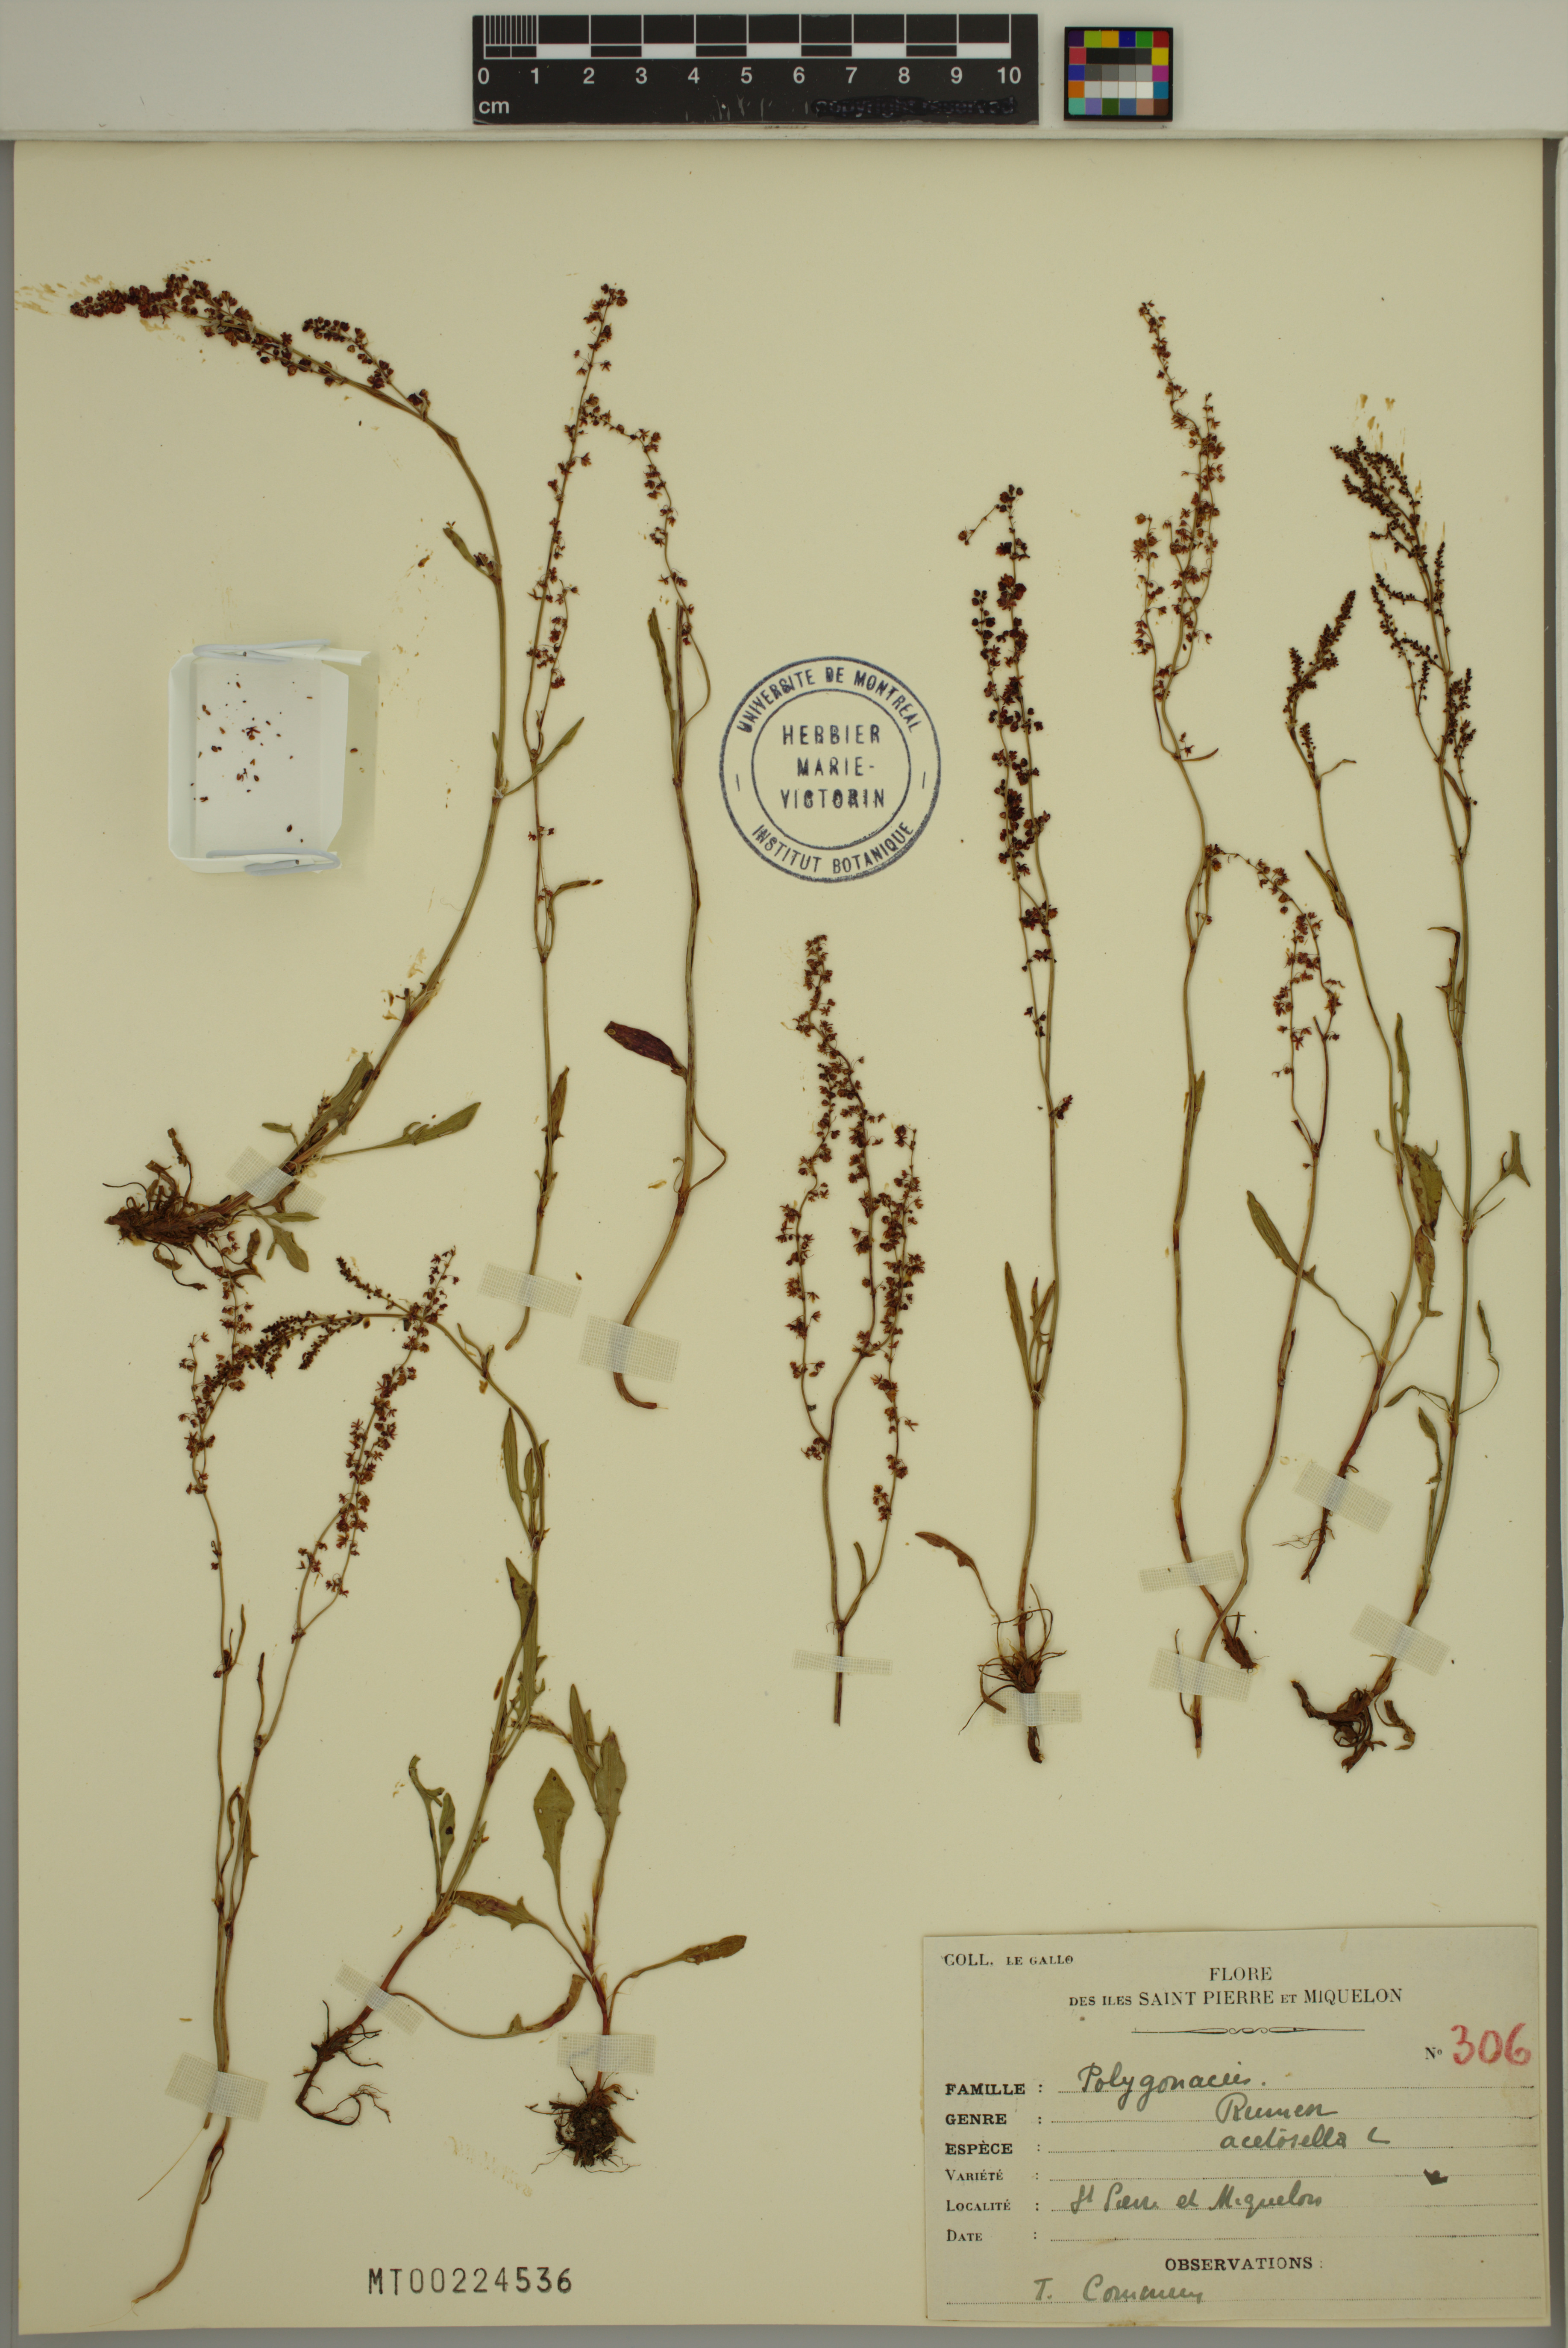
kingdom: Plantae
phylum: Tracheophyta
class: Magnoliopsida
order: Caryophyllales
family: Polygonaceae
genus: Rumex
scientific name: Rumex acetosella
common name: Common sheep sorrel
